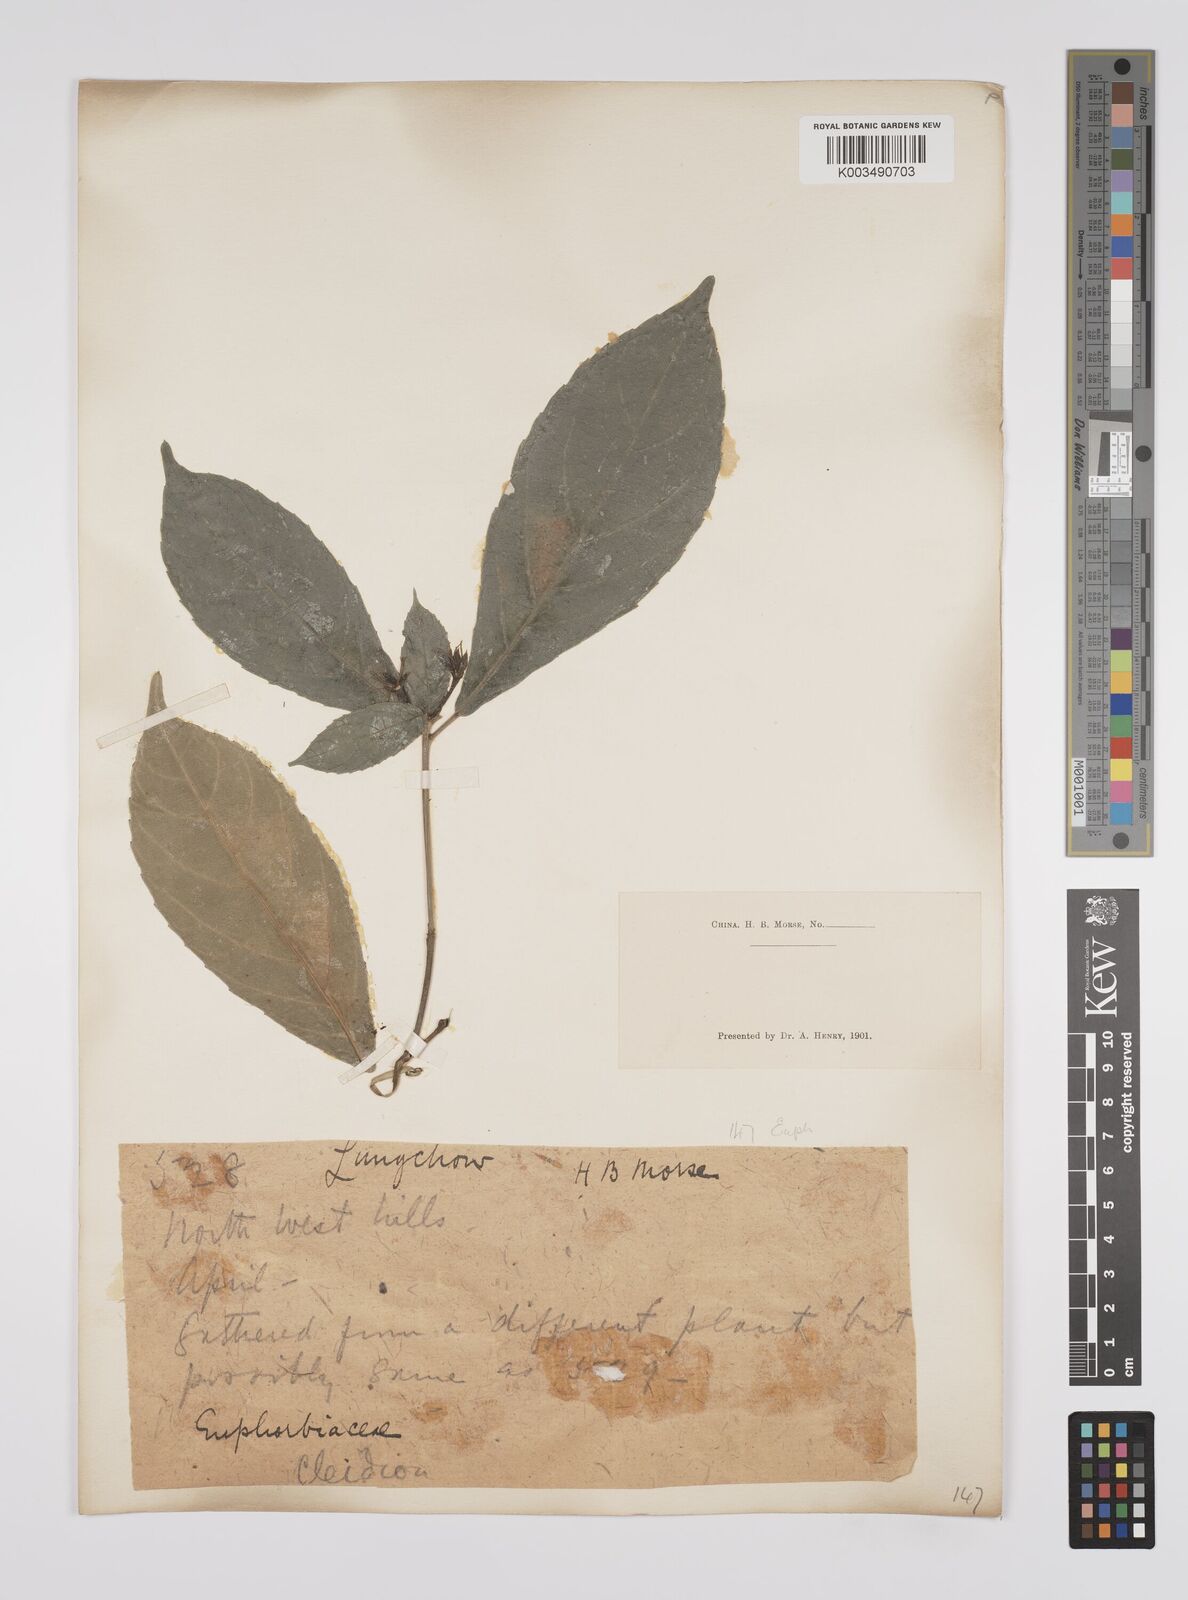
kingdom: Plantae
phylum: Tracheophyta
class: Magnoliopsida
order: Malpighiales
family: Euphorbiaceae
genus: Cleidion
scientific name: Cleidion brevipetiolatum
